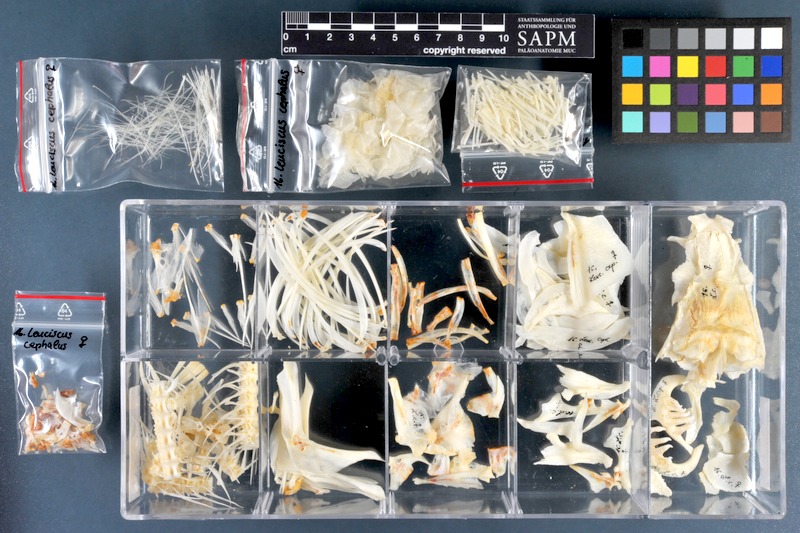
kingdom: Animalia
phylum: Chordata
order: Cypriniformes
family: Cyprinidae
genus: Squalius
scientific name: Squalius cephalus
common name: Chub
